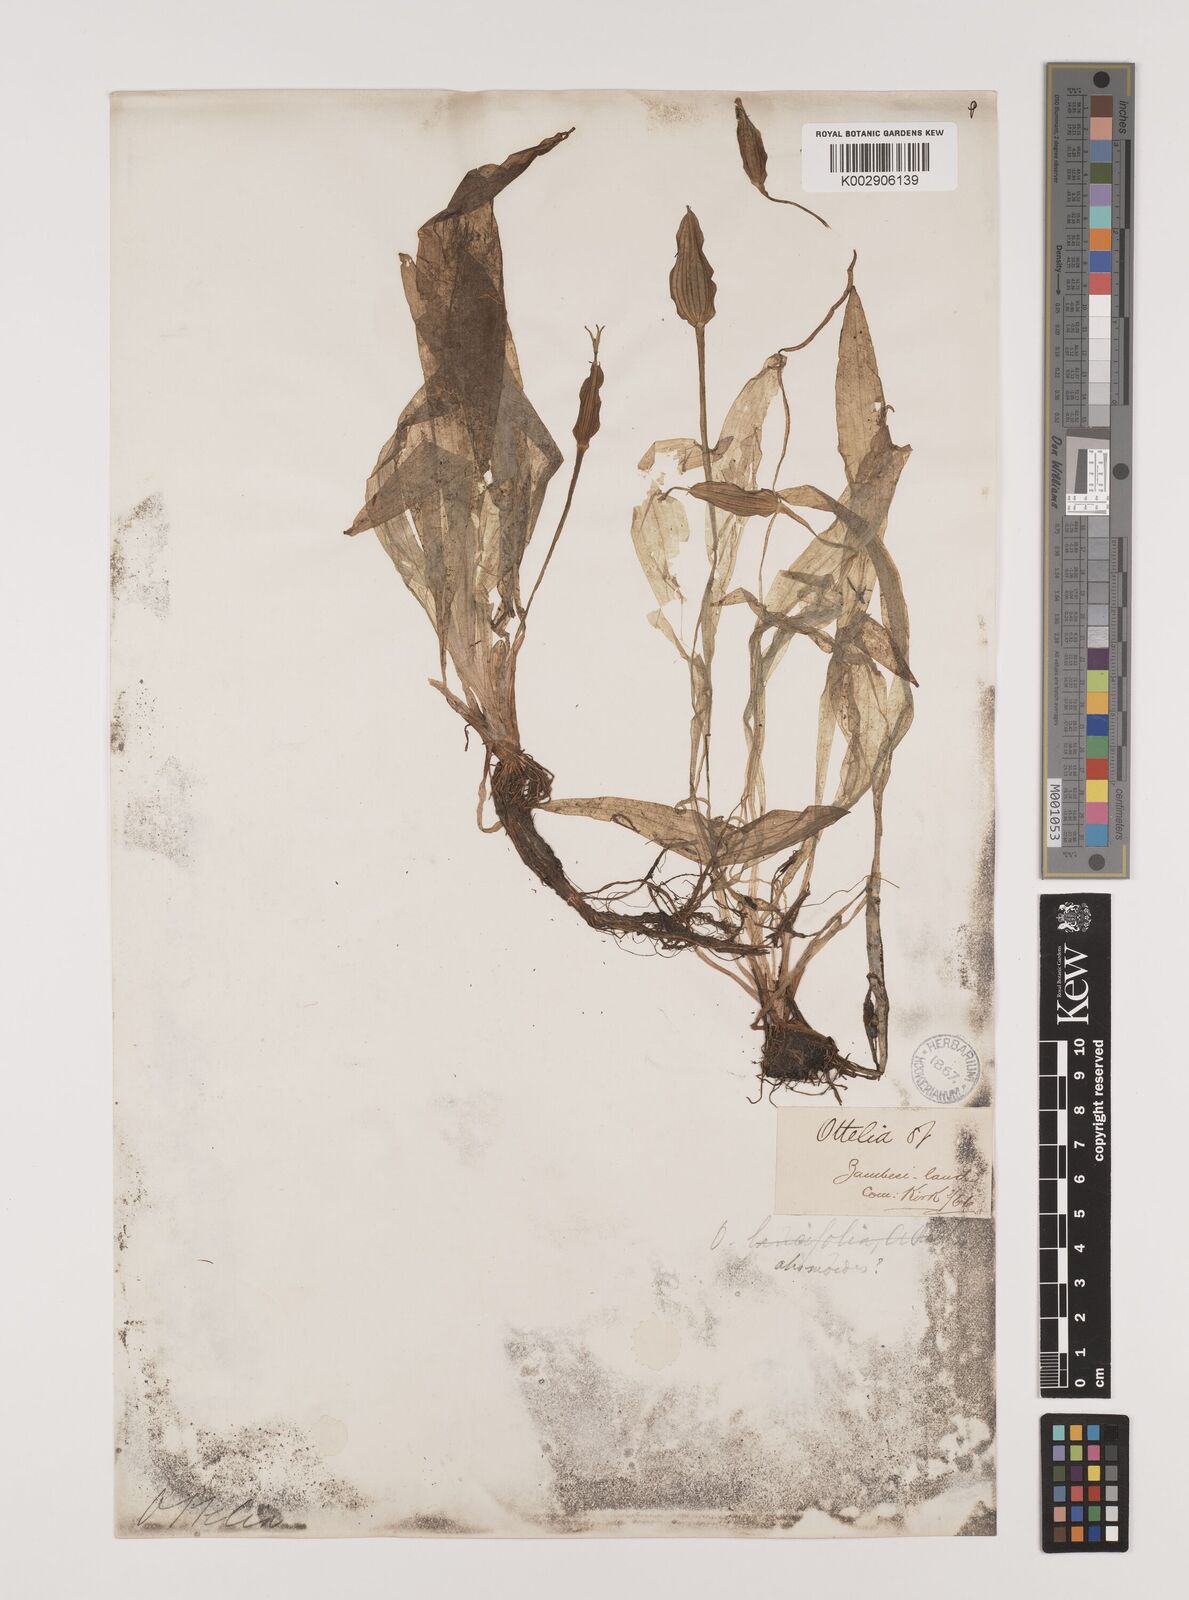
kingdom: Plantae
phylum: Tracheophyta
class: Liliopsida
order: Alismatales
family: Hydrocharitaceae
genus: Ottelia
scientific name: Ottelia ulvifolia
